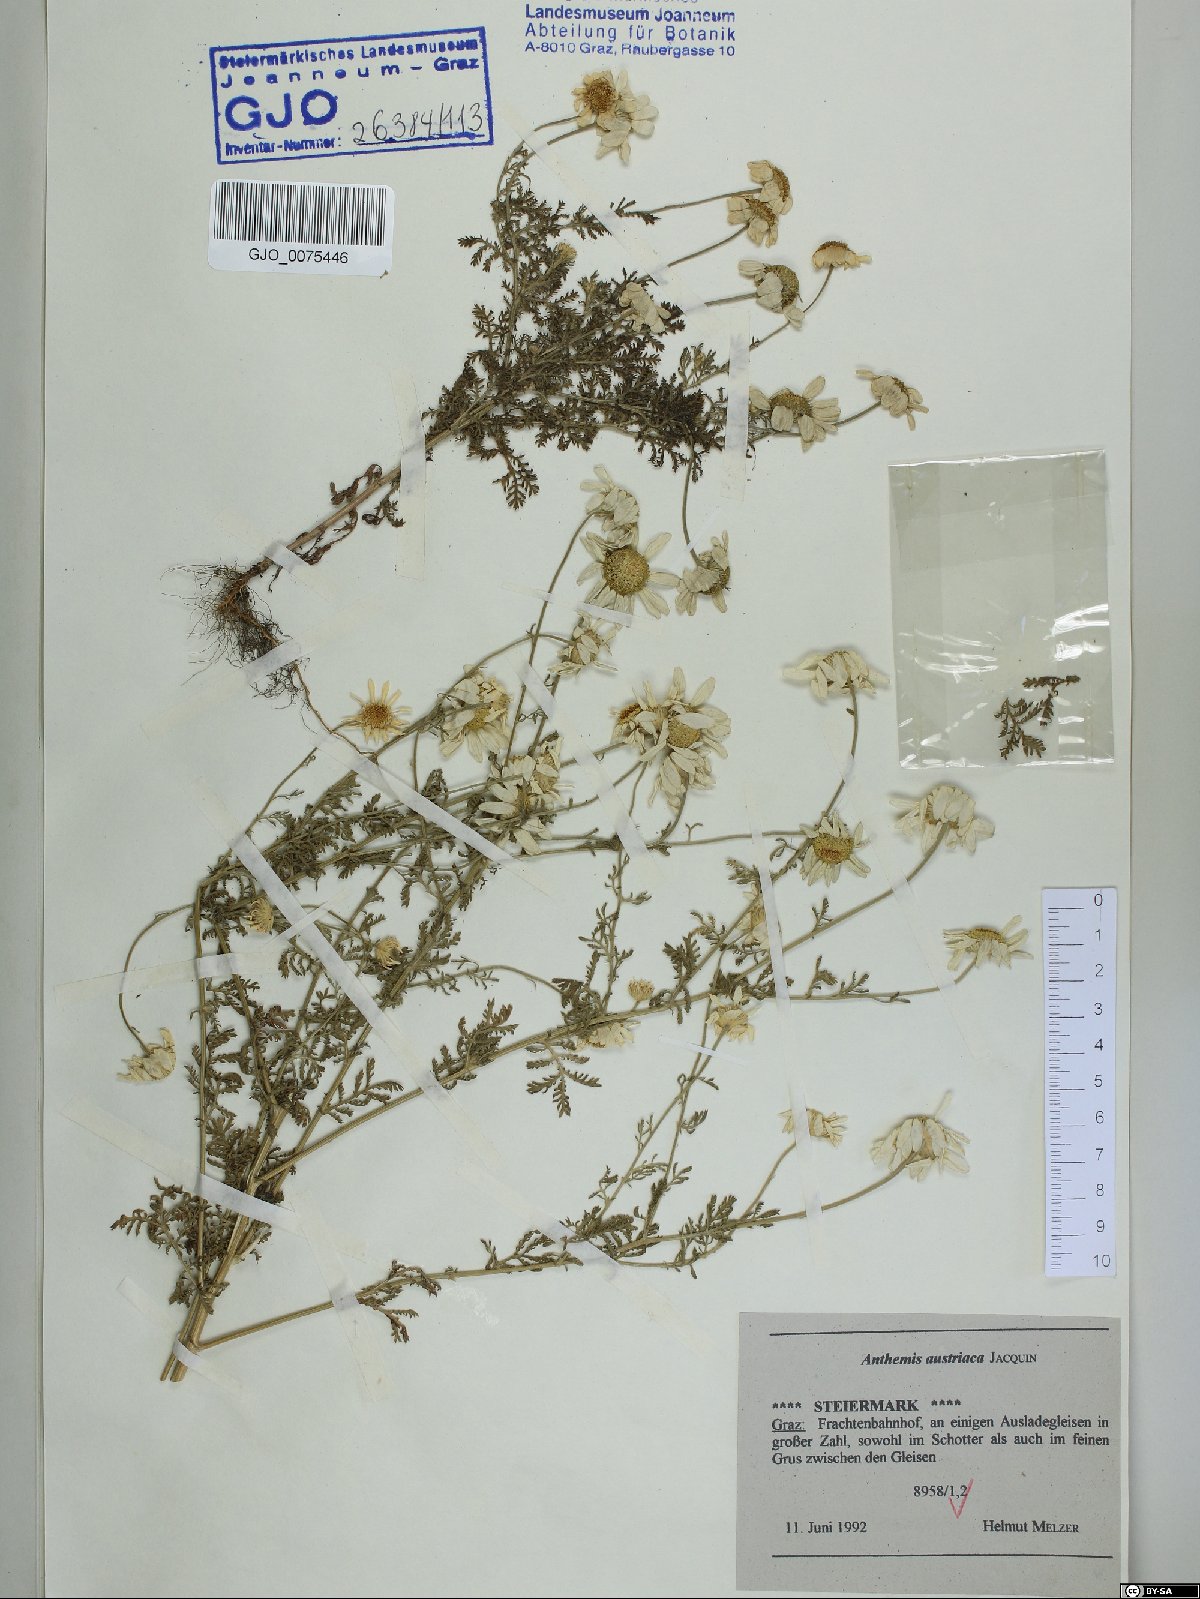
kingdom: Plantae
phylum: Tracheophyta
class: Magnoliopsida
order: Asterales
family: Asteraceae
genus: Cota
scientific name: Cota austriaca
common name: Austrian chamomile
